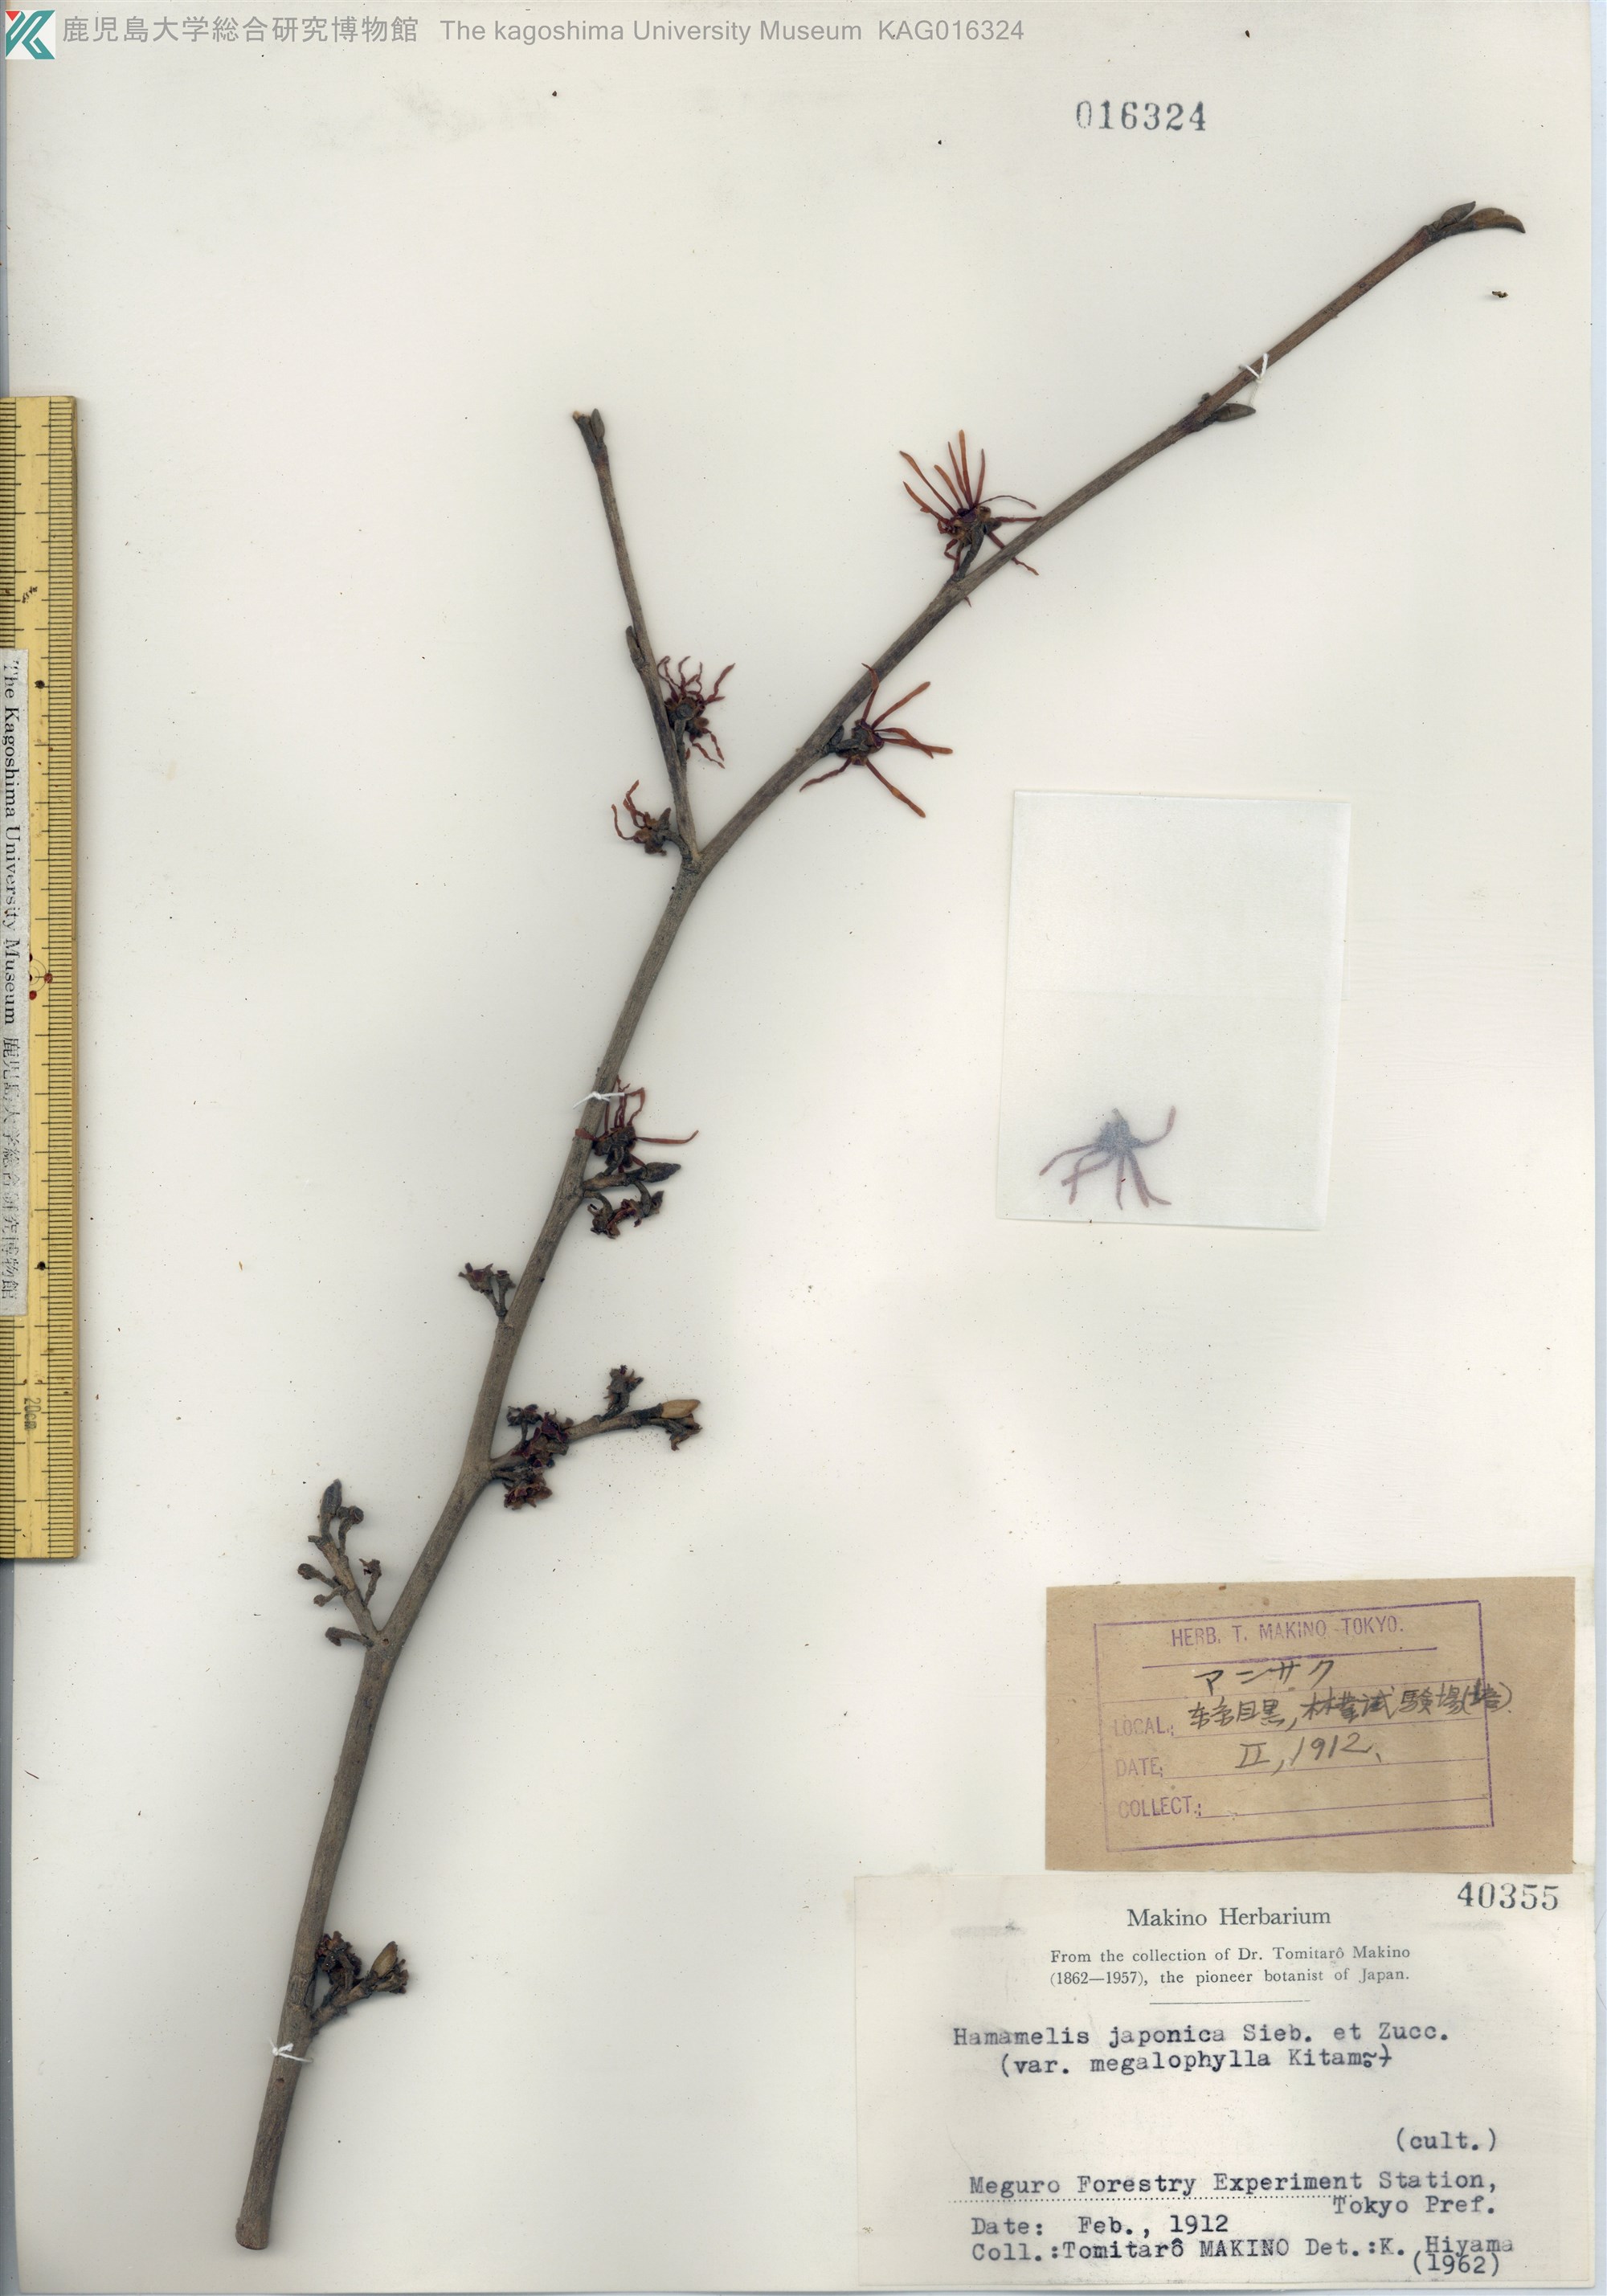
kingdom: Plantae
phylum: Tracheophyta
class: Magnoliopsida
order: Saxifragales
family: Hamamelidaceae
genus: Hamamelis
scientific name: Hamamelis japonica
